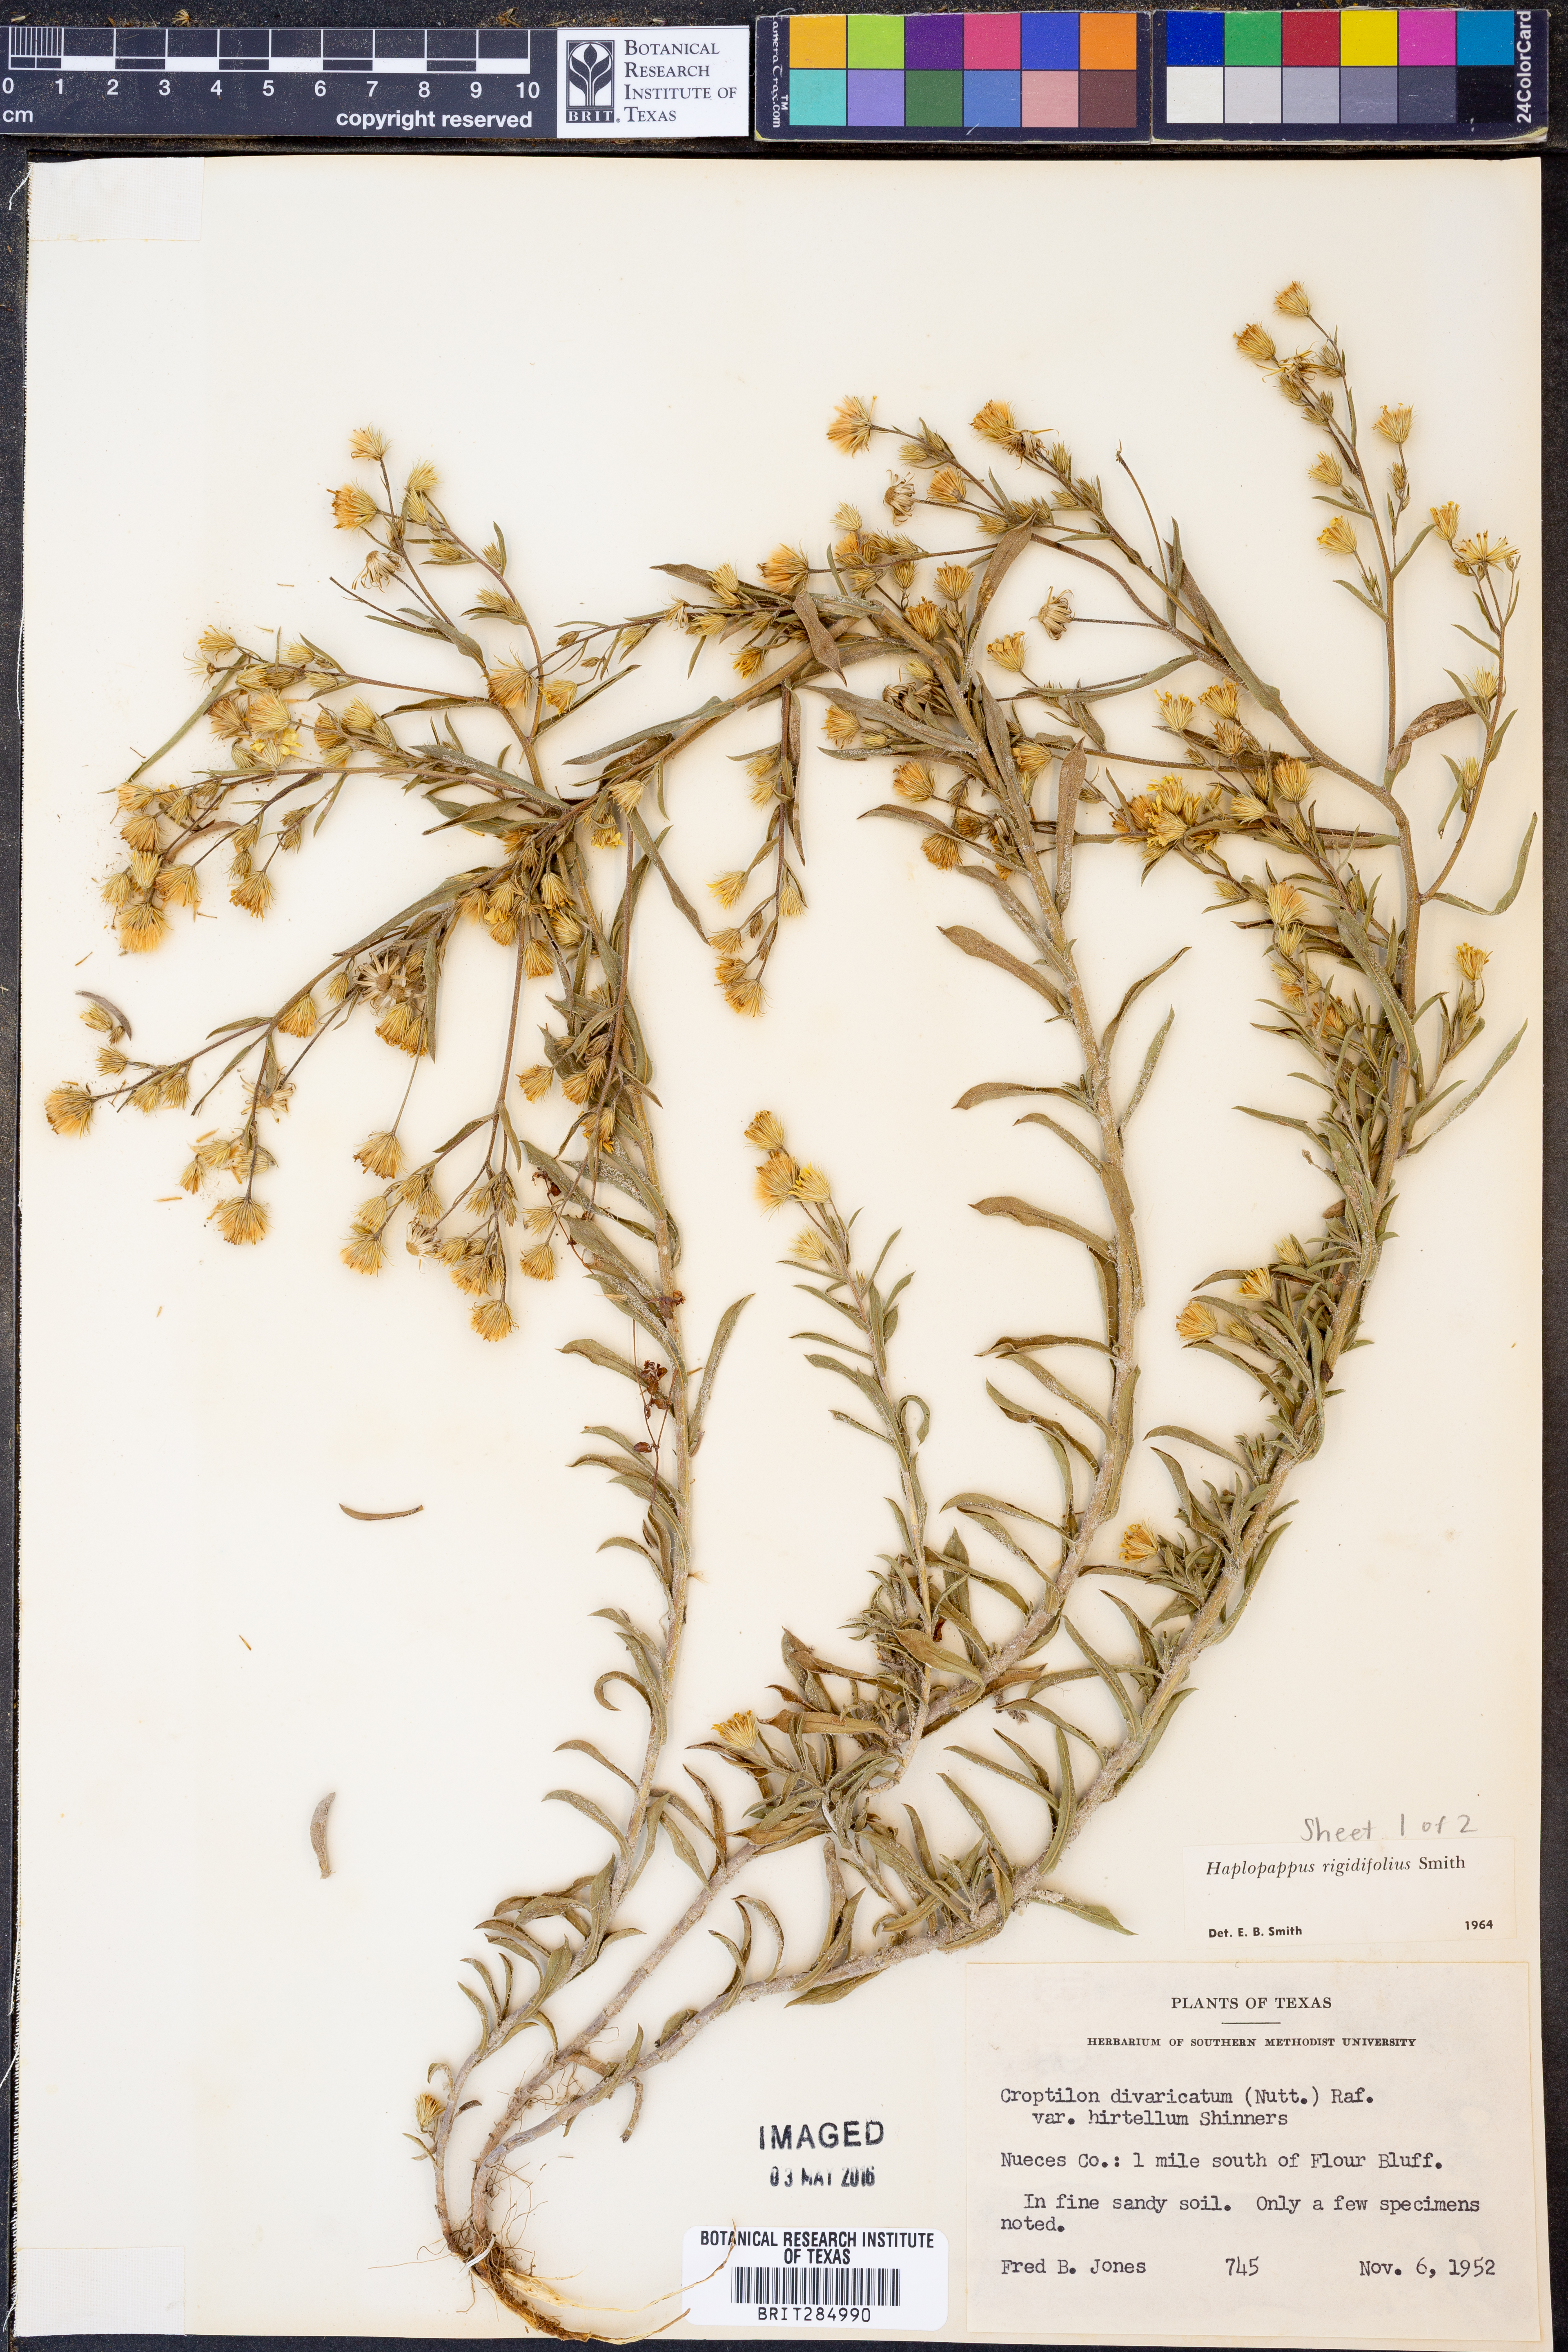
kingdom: Plantae
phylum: Tracheophyta
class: Magnoliopsida
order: Asterales
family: Asteraceae
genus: Croptilon
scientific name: Croptilon rigidifolium
